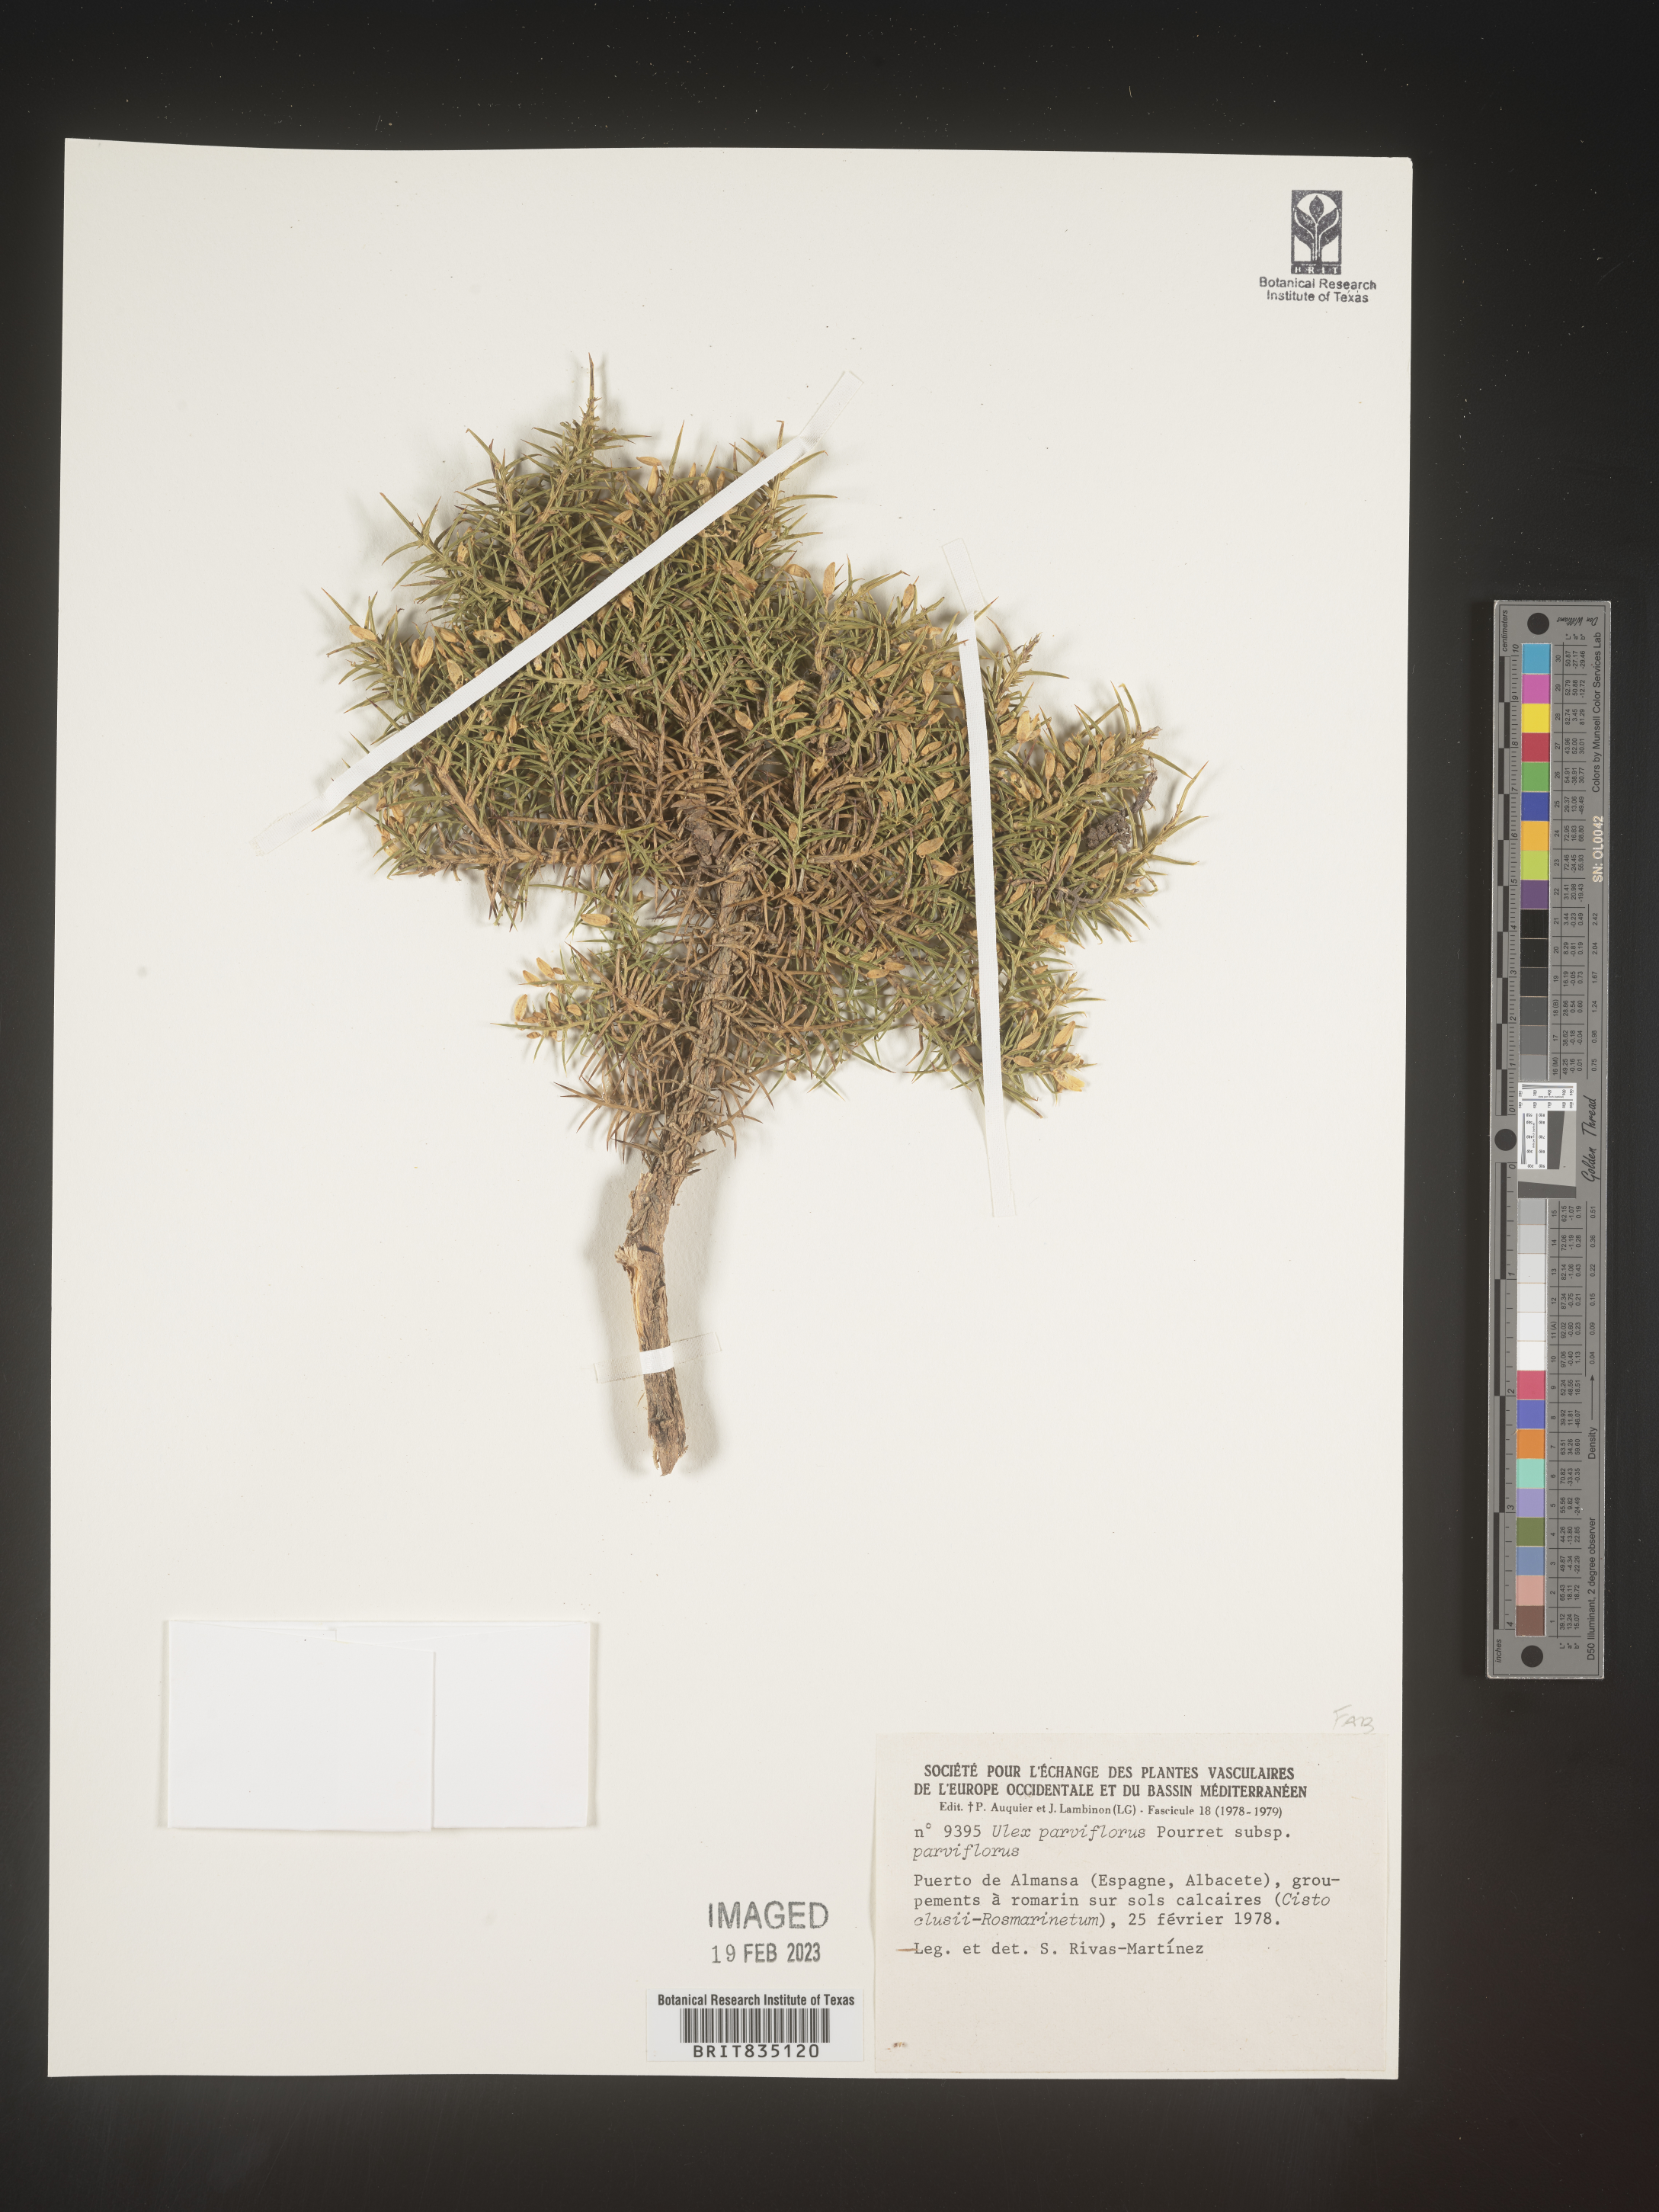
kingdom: Plantae
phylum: Tracheophyta
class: Magnoliopsida
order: Fabales
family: Fabaceae
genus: Ulex
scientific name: Ulex
